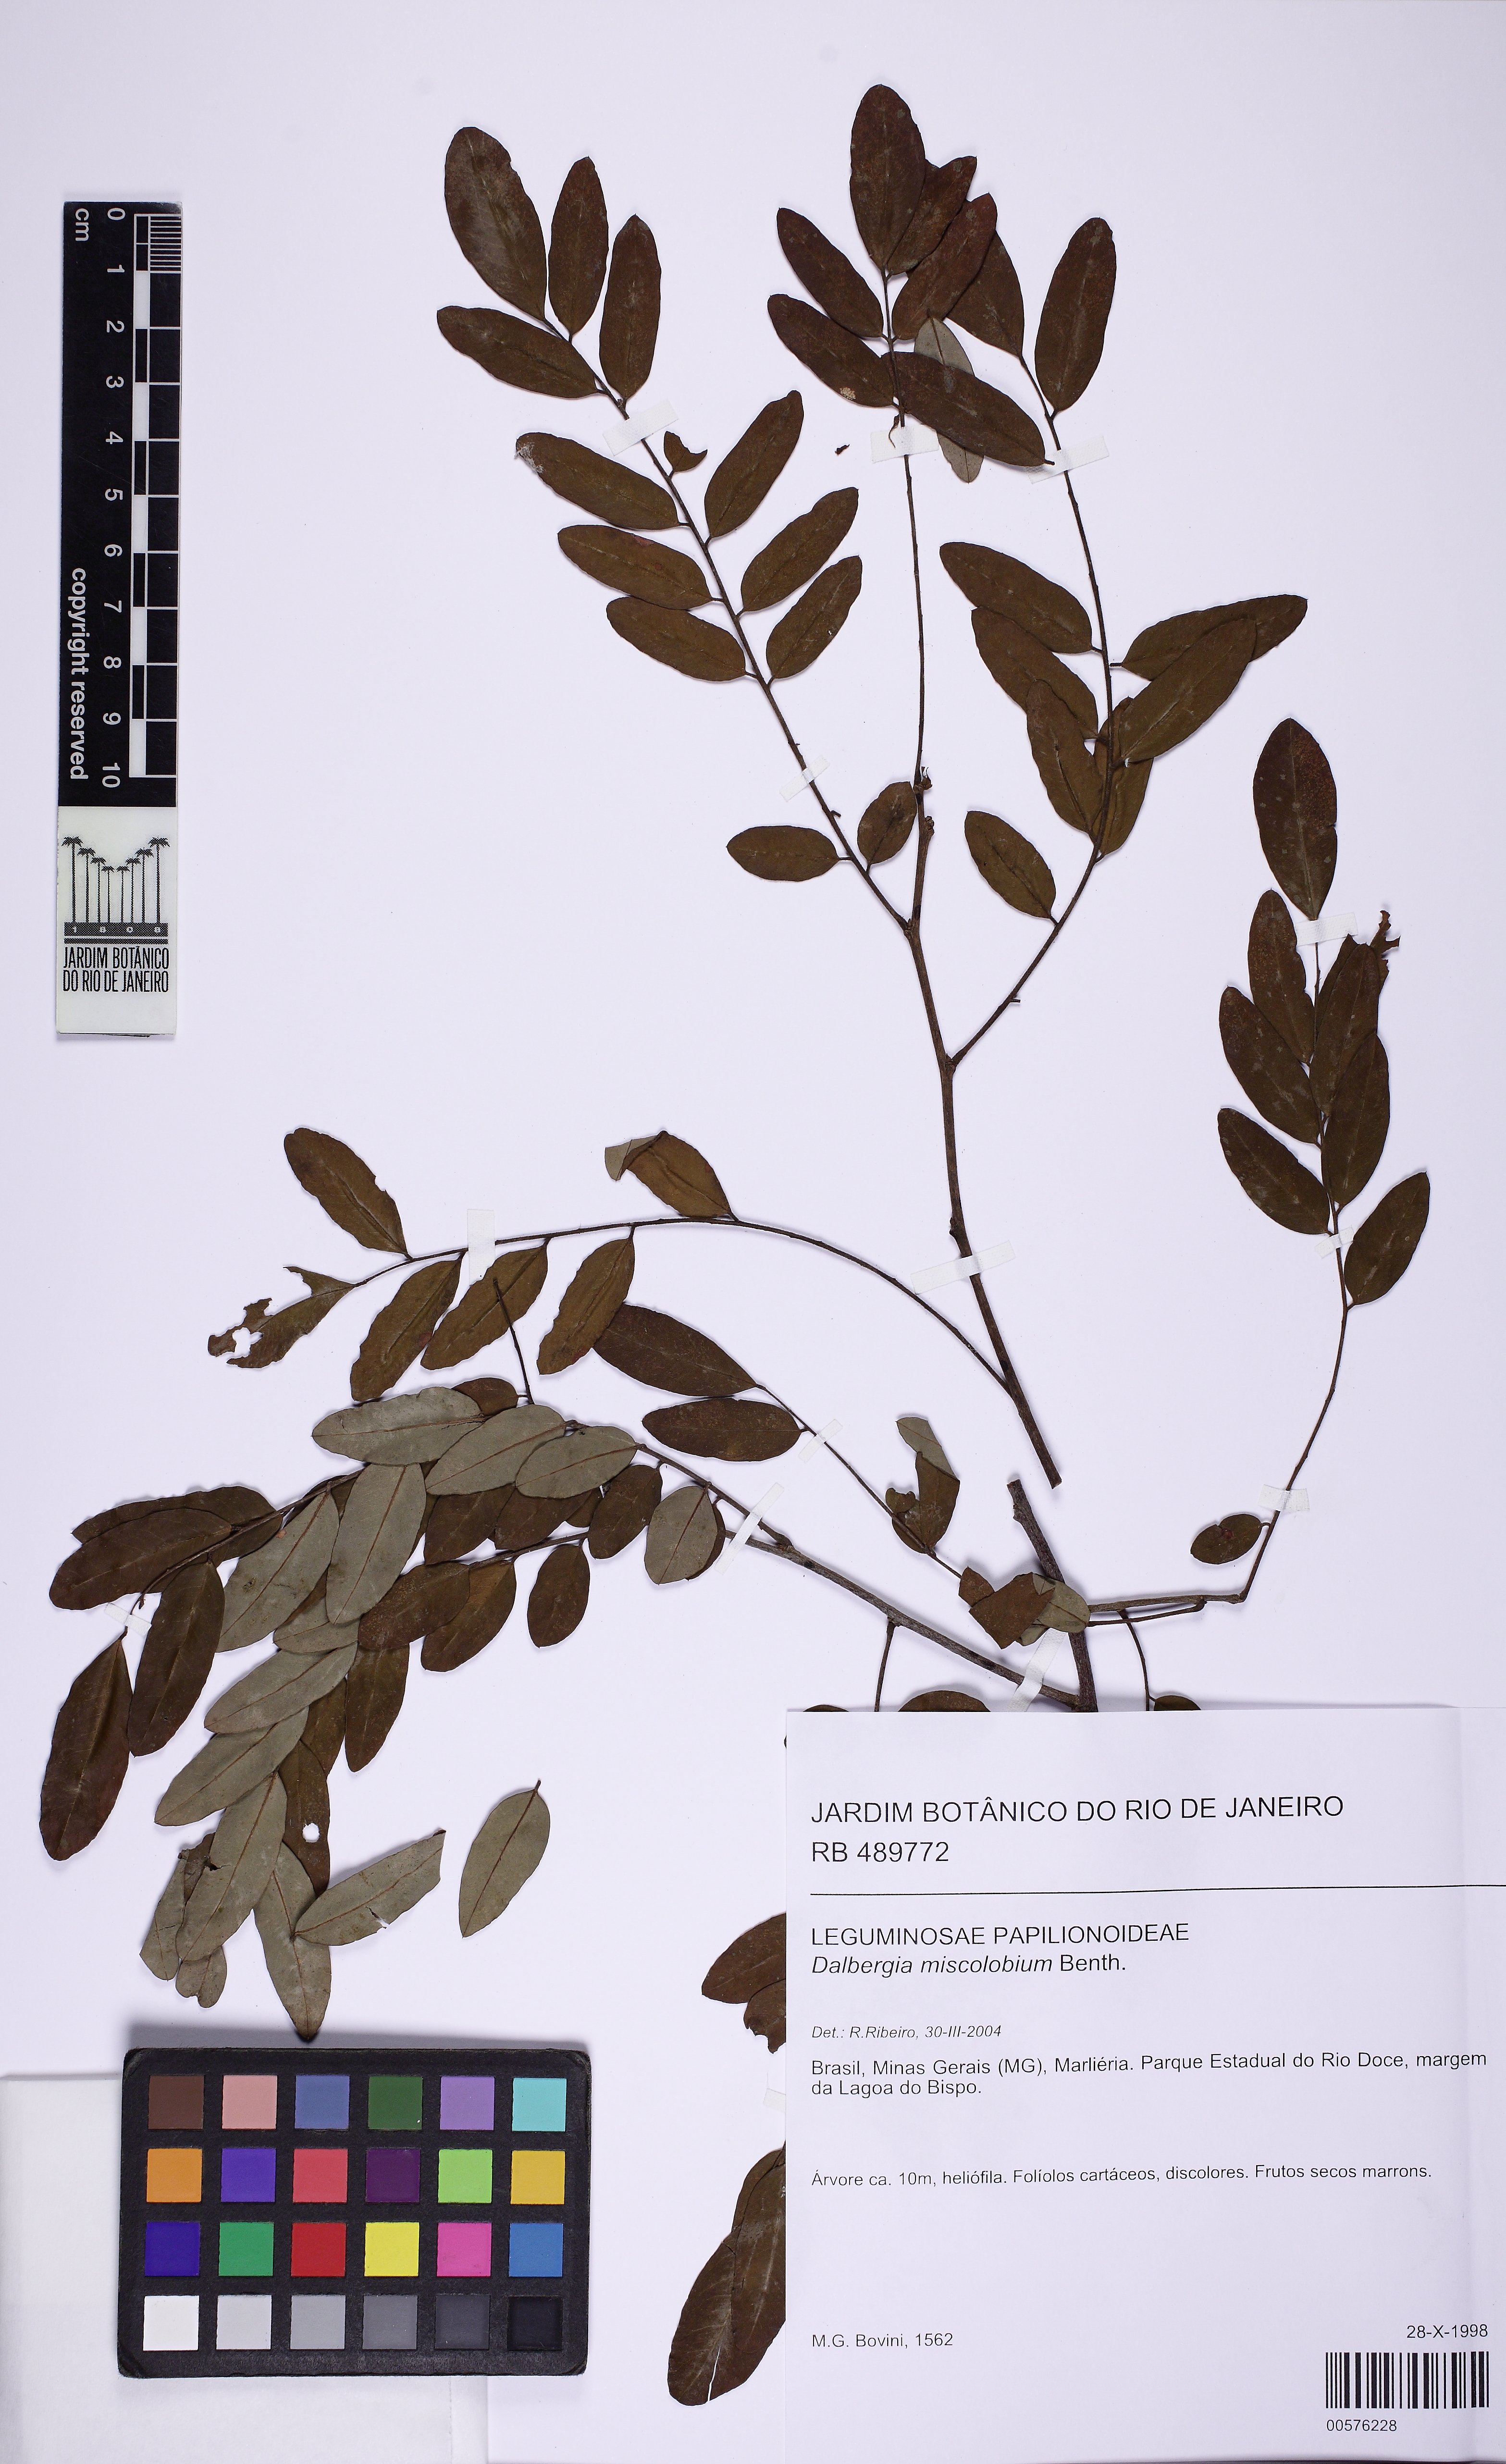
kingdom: Plantae
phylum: Tracheophyta
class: Magnoliopsida
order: Fabales
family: Fabaceae
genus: Dalbergia
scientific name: Dalbergia miscolobium
